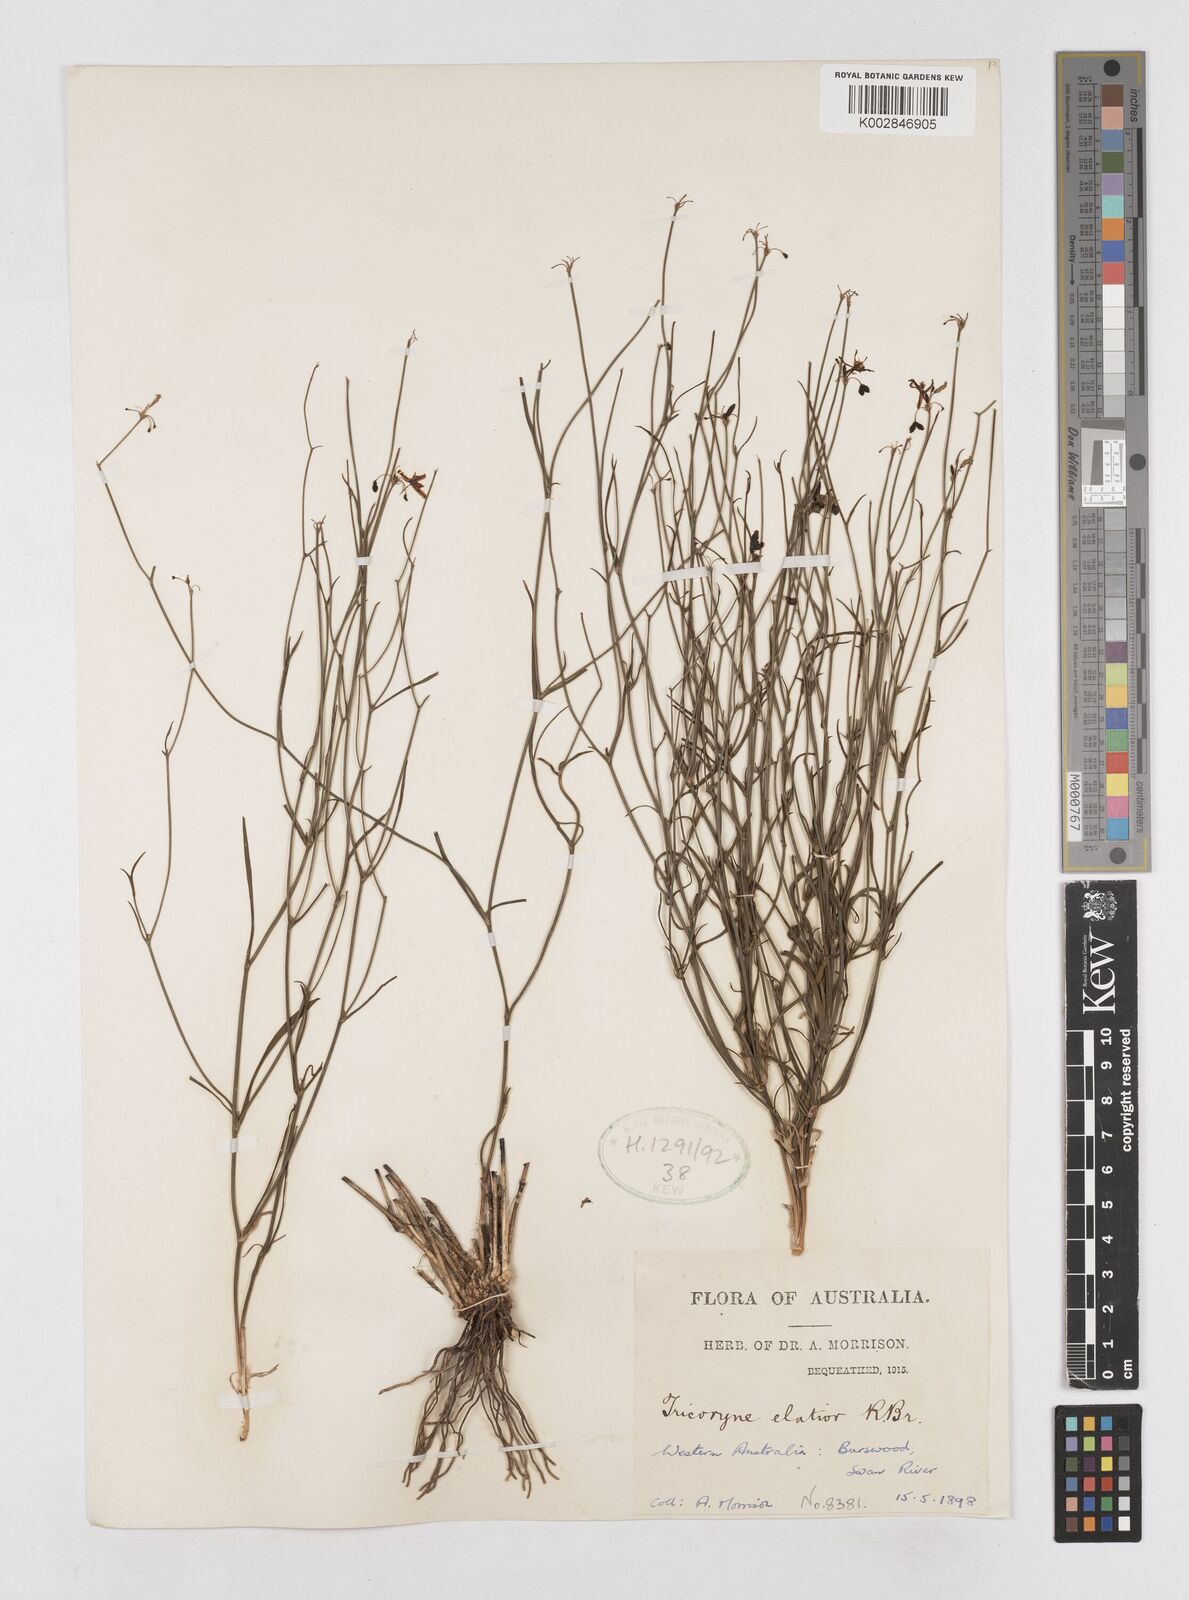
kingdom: Plantae
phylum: Tracheophyta
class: Liliopsida
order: Asparagales
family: Asphodelaceae
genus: Tricoryne
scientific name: Tricoryne elatior
